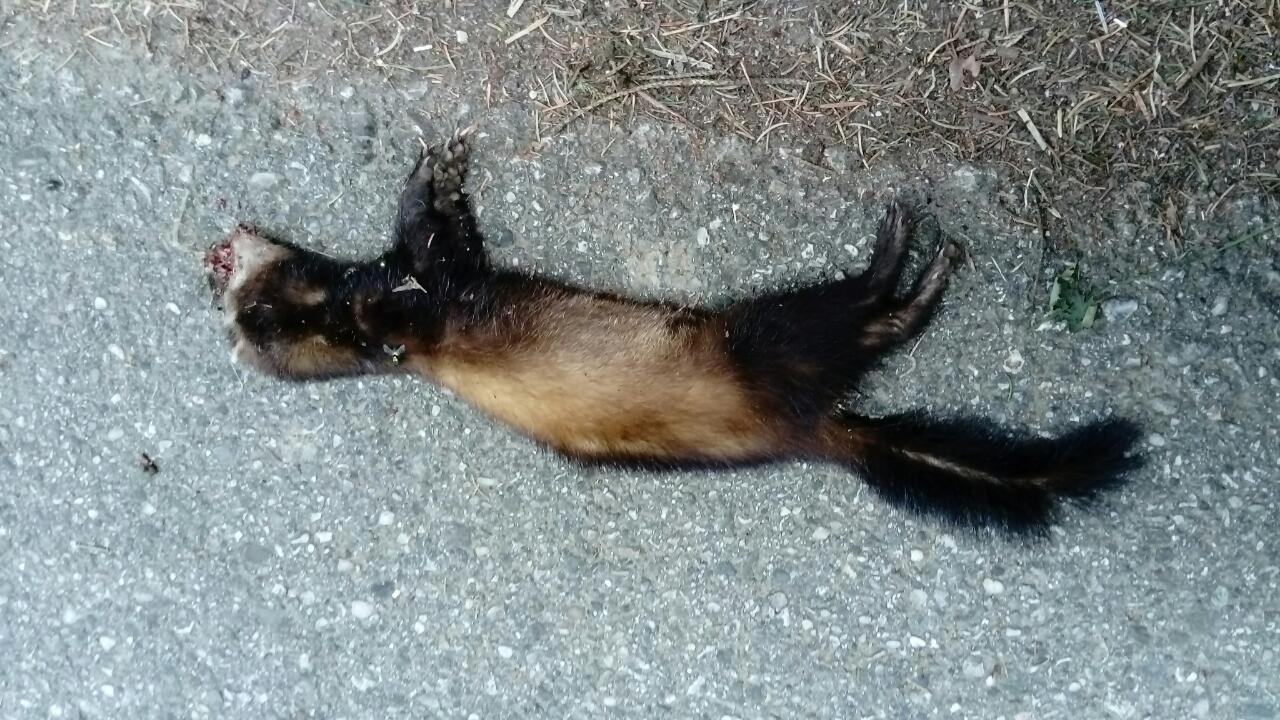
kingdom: Animalia
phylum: Chordata
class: Mammalia
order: Carnivora
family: Mustelidae
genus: Mustela
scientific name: Mustela putorius
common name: European polecat
